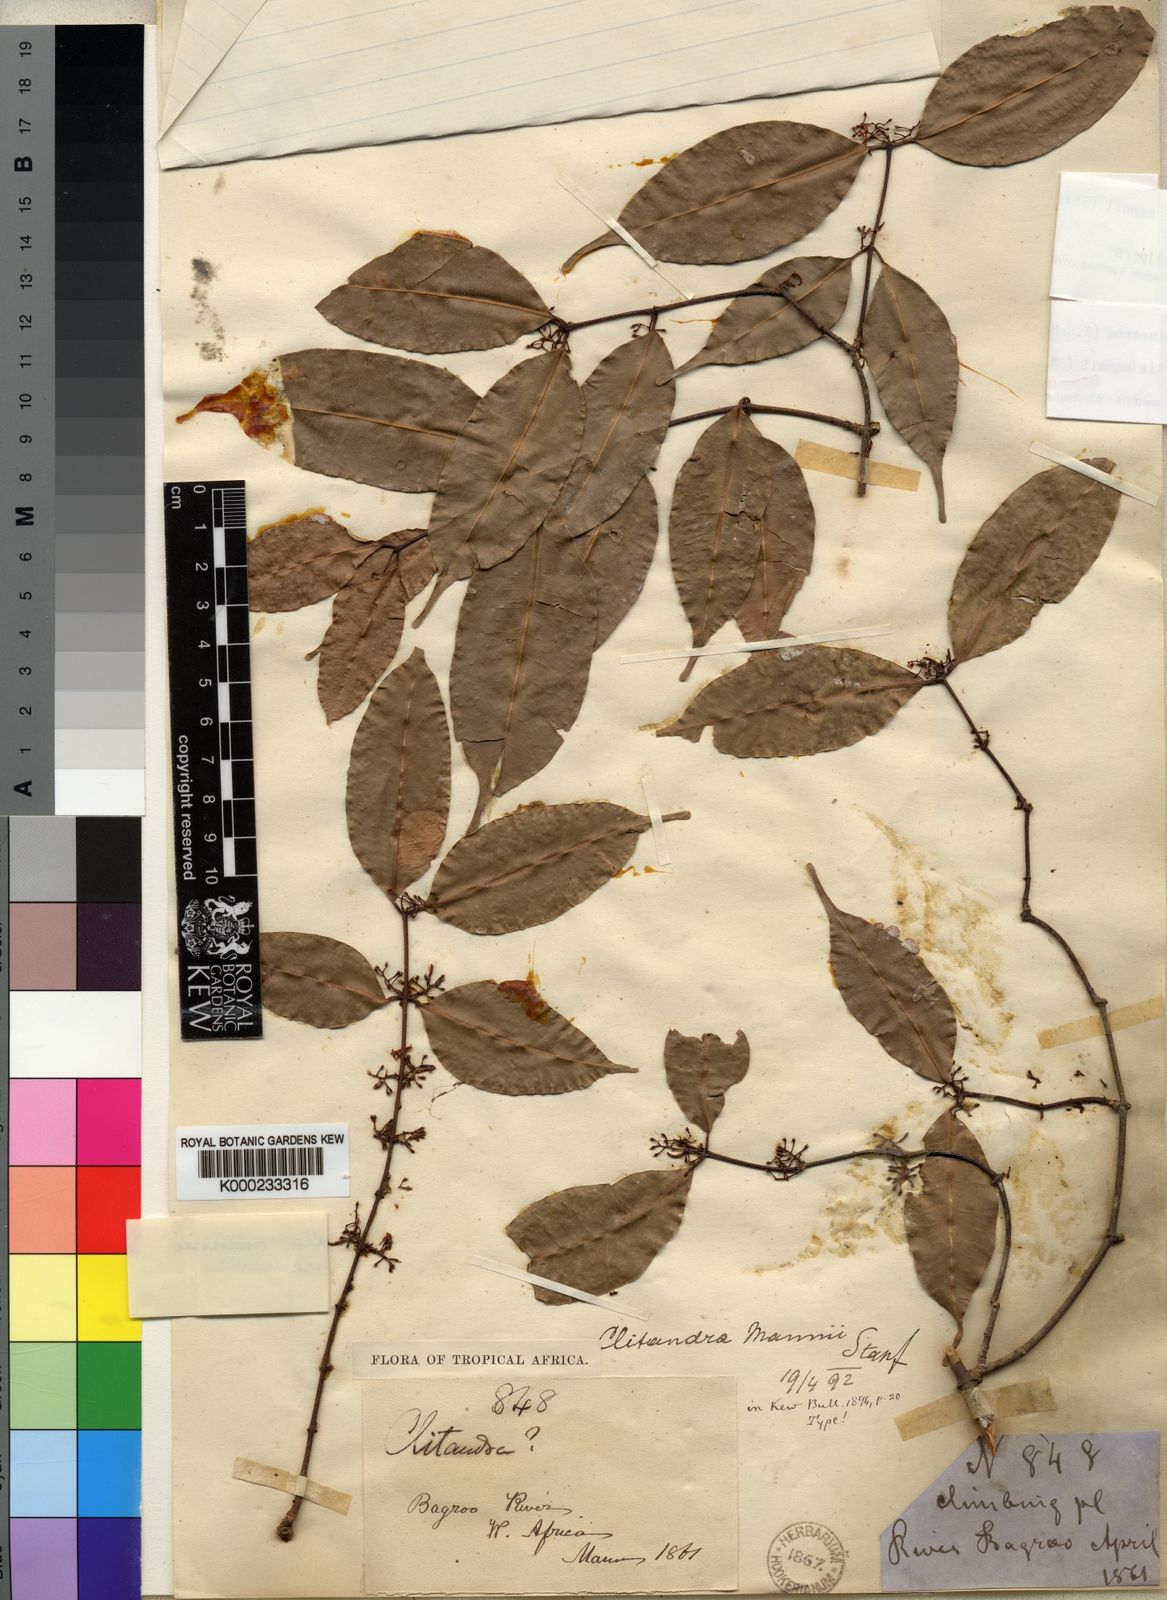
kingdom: Plantae
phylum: Tracheophyta
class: Magnoliopsida
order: Gentianales
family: Apocynaceae
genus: Landolphia
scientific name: Landolphia incerta
